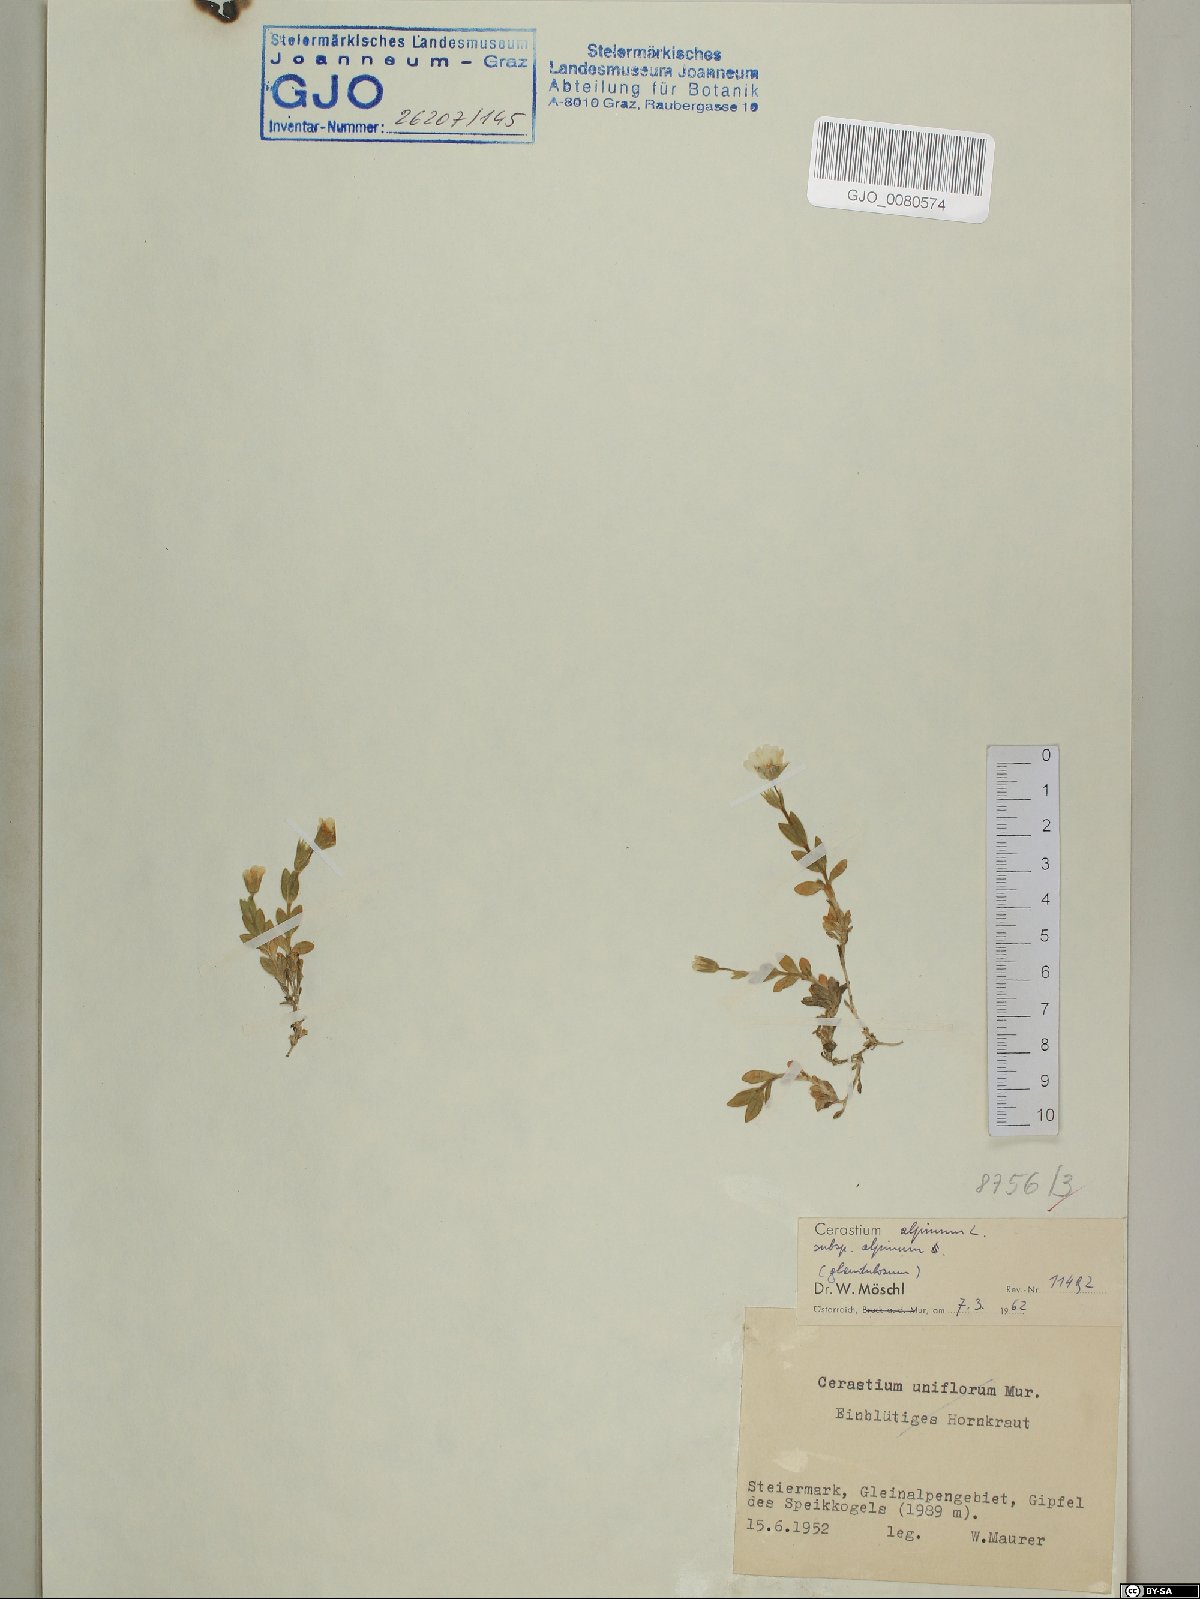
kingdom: Plantae
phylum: Tracheophyta
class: Magnoliopsida
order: Caryophyllales
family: Caryophyllaceae
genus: Cerastium
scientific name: Cerastium alpinum
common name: Alpine mouse-ear
